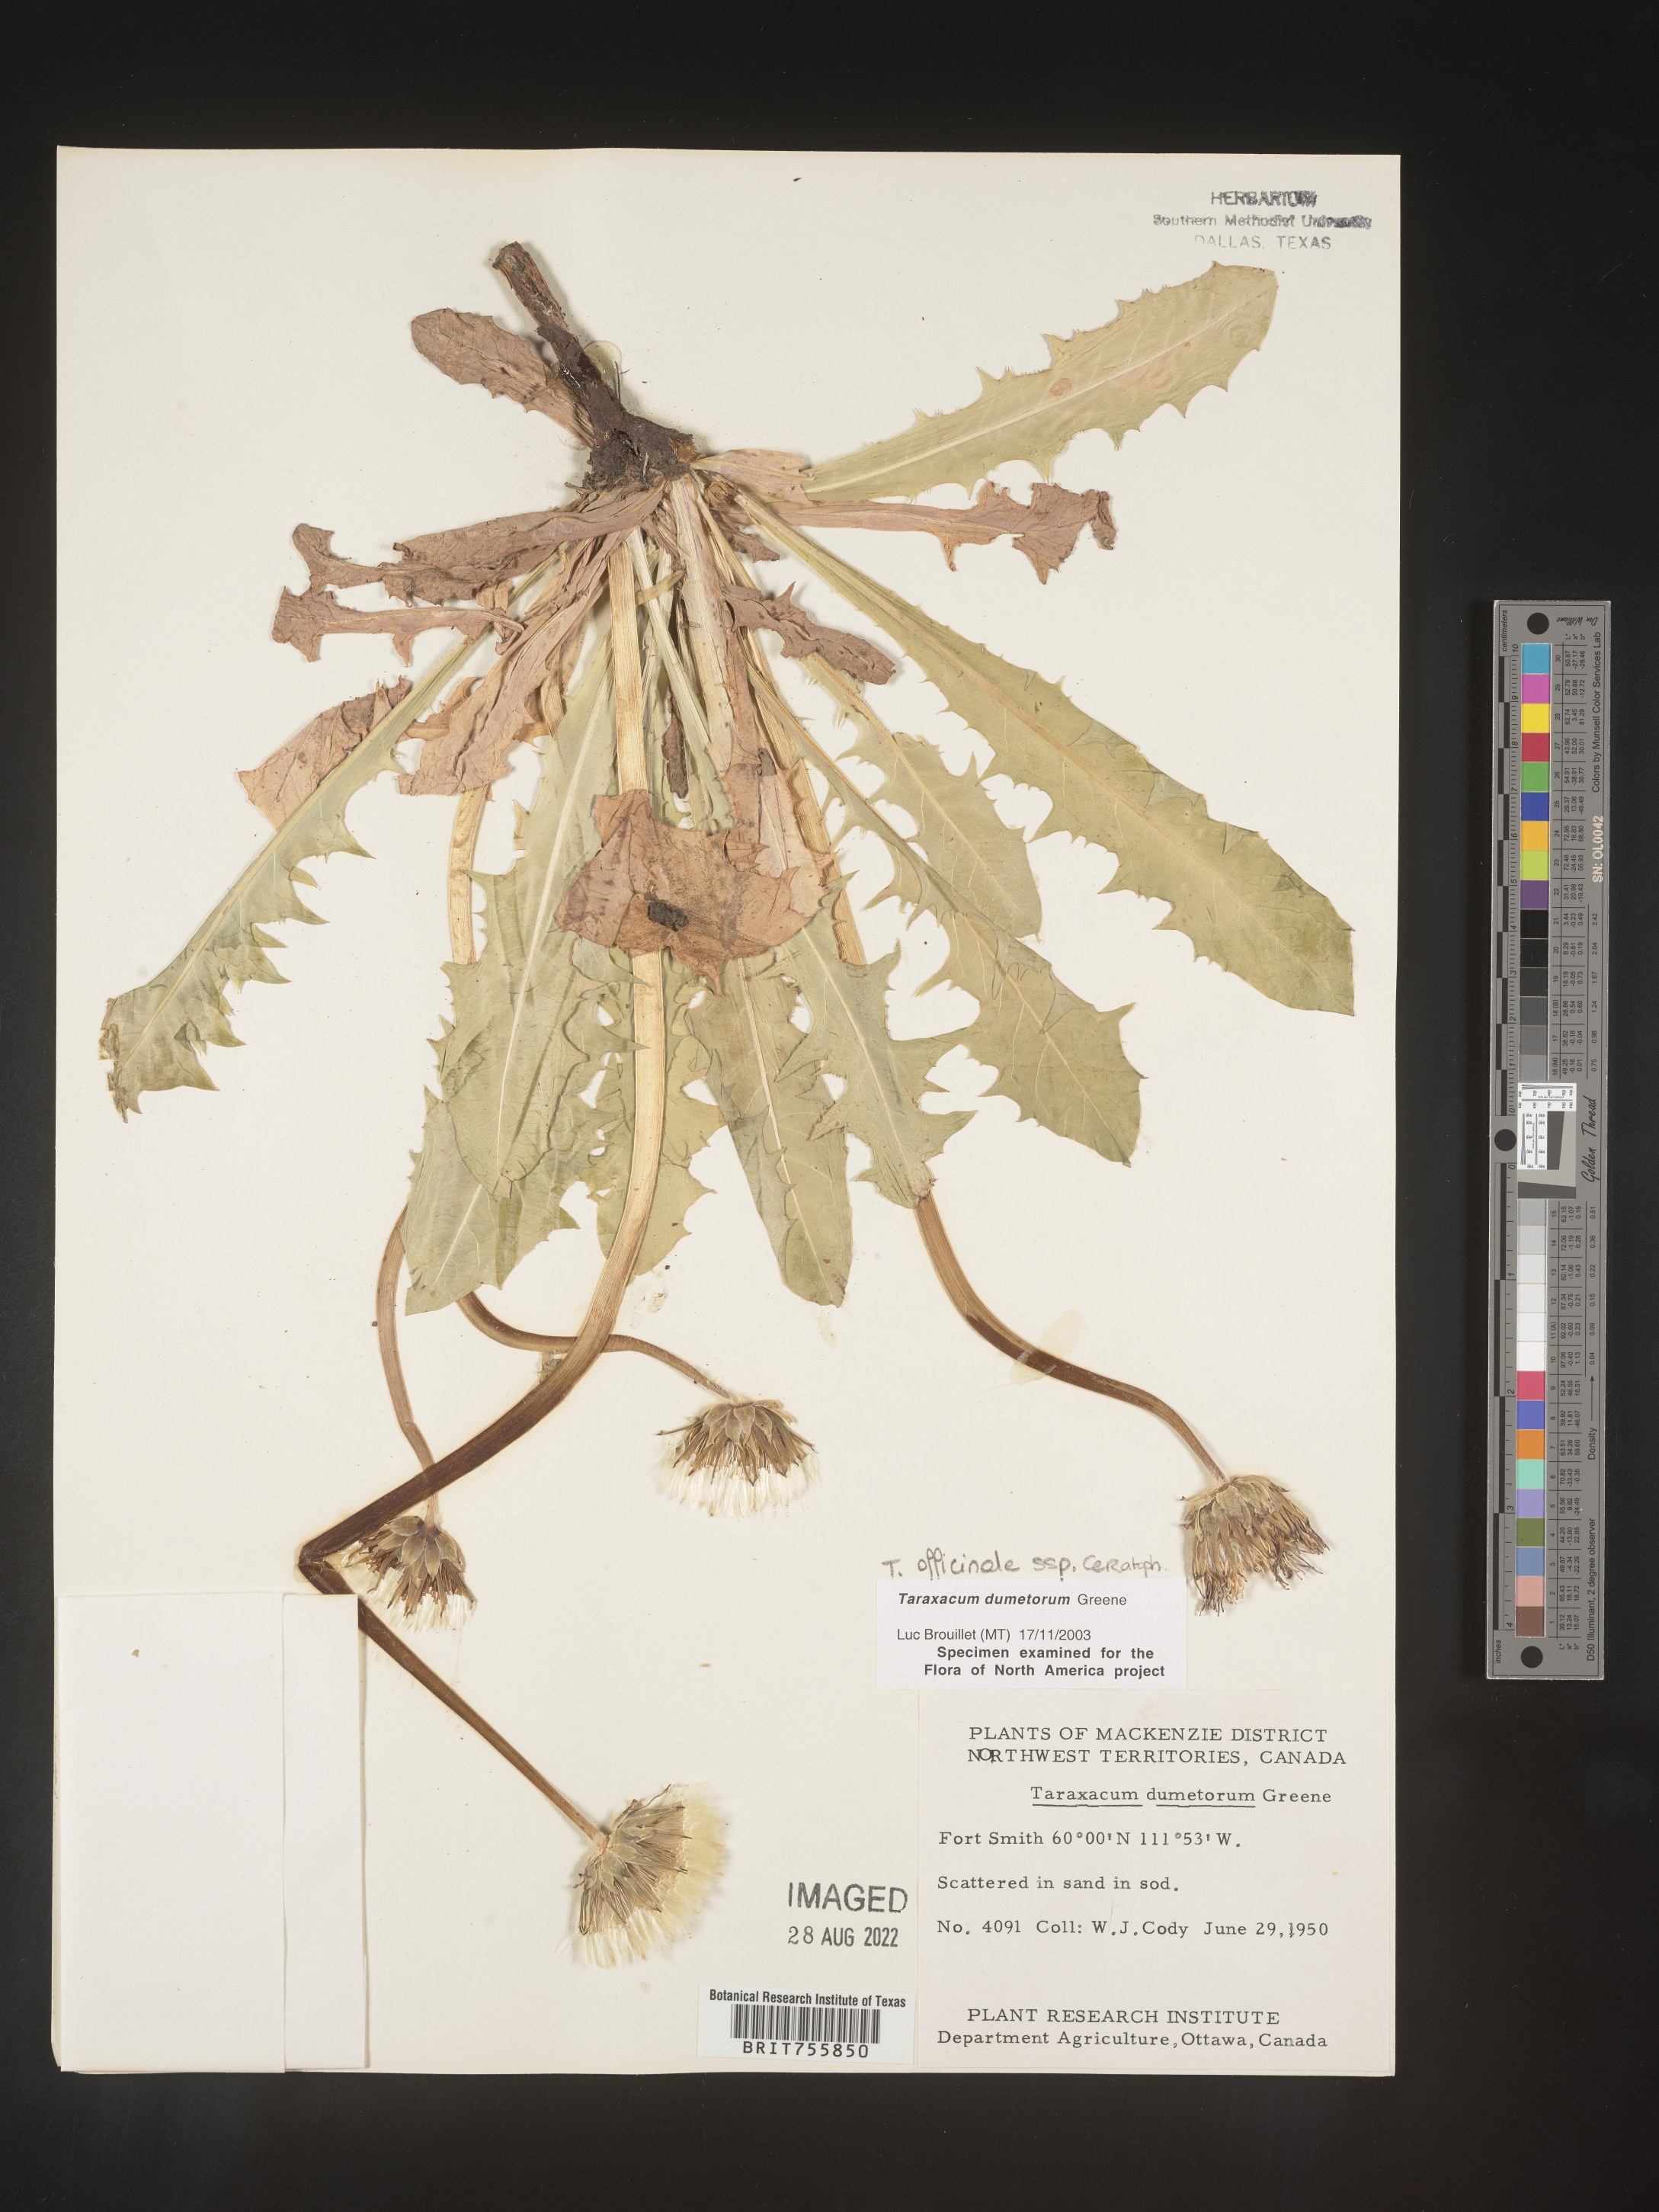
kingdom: Plantae
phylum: Tracheophyta
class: Magnoliopsida
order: Asterales
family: Asteraceae
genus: Taraxacum
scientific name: Taraxacum officinale
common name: Common dandelion
